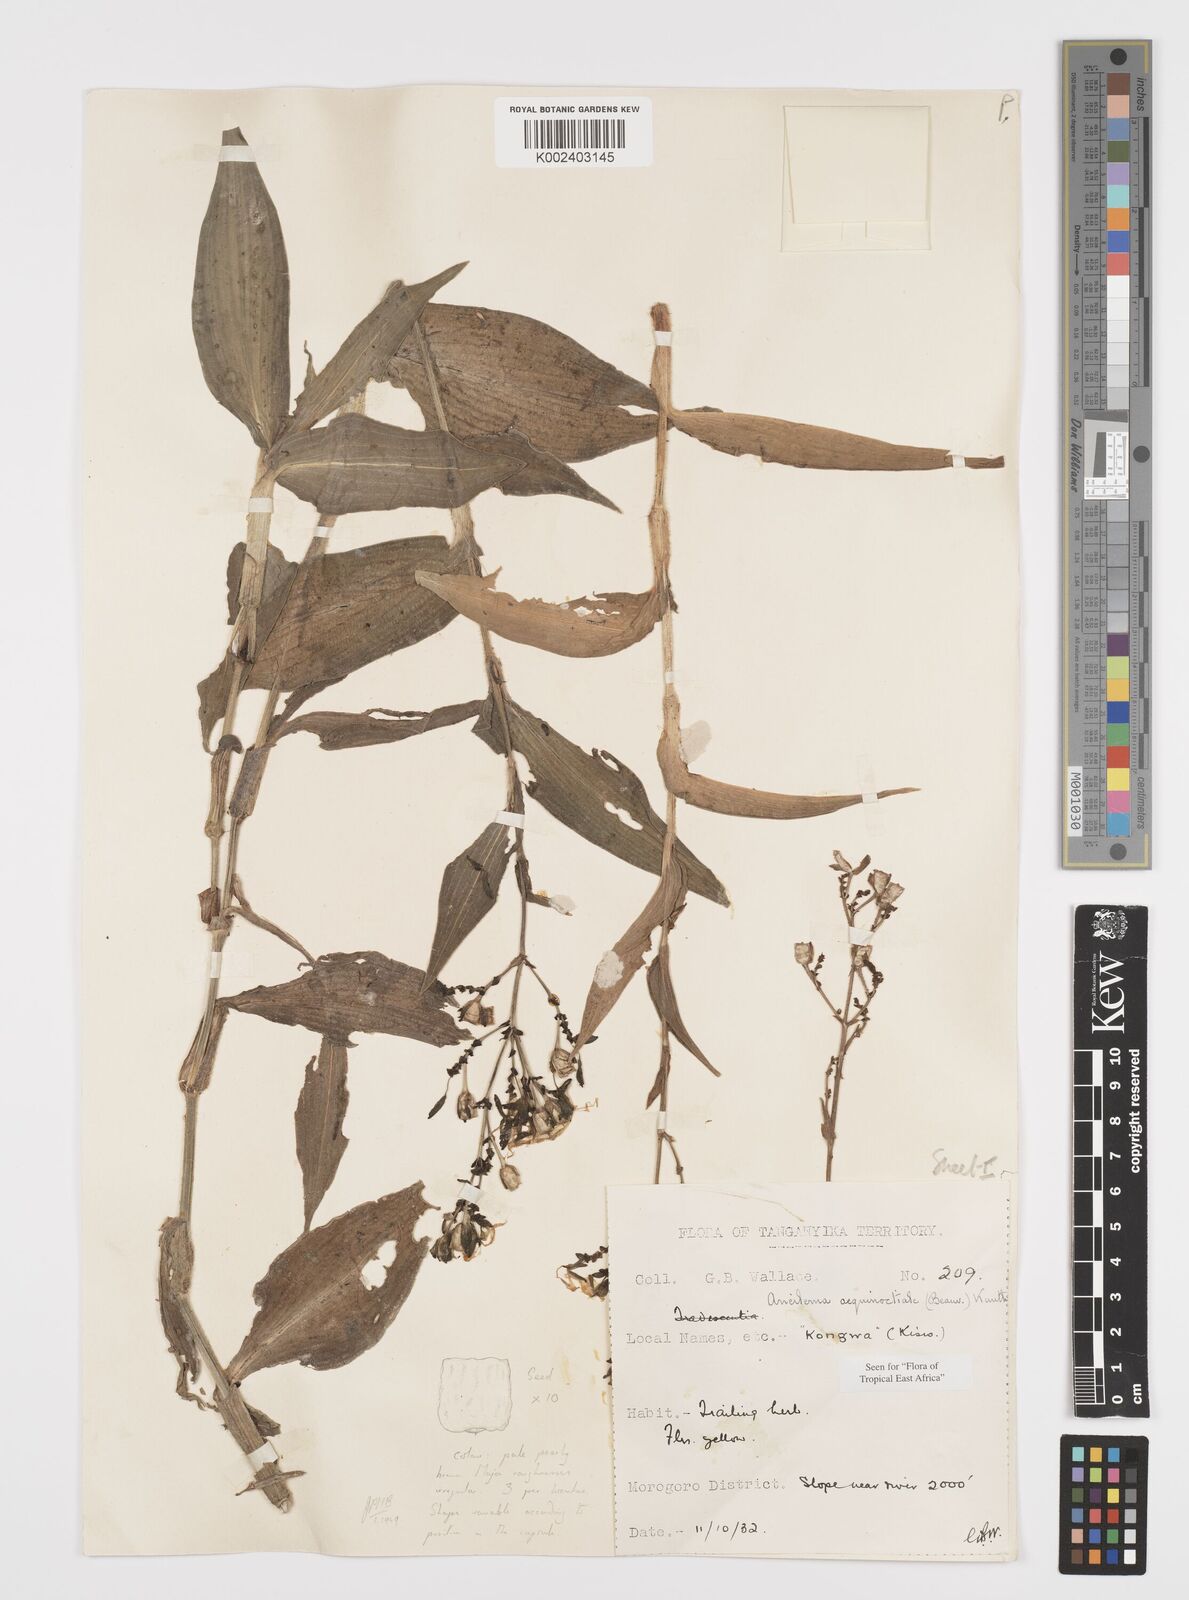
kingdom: Plantae
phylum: Tracheophyta
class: Liliopsida
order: Commelinales
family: Commelinaceae
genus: Aneilema
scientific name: Aneilema aequinoctiale
